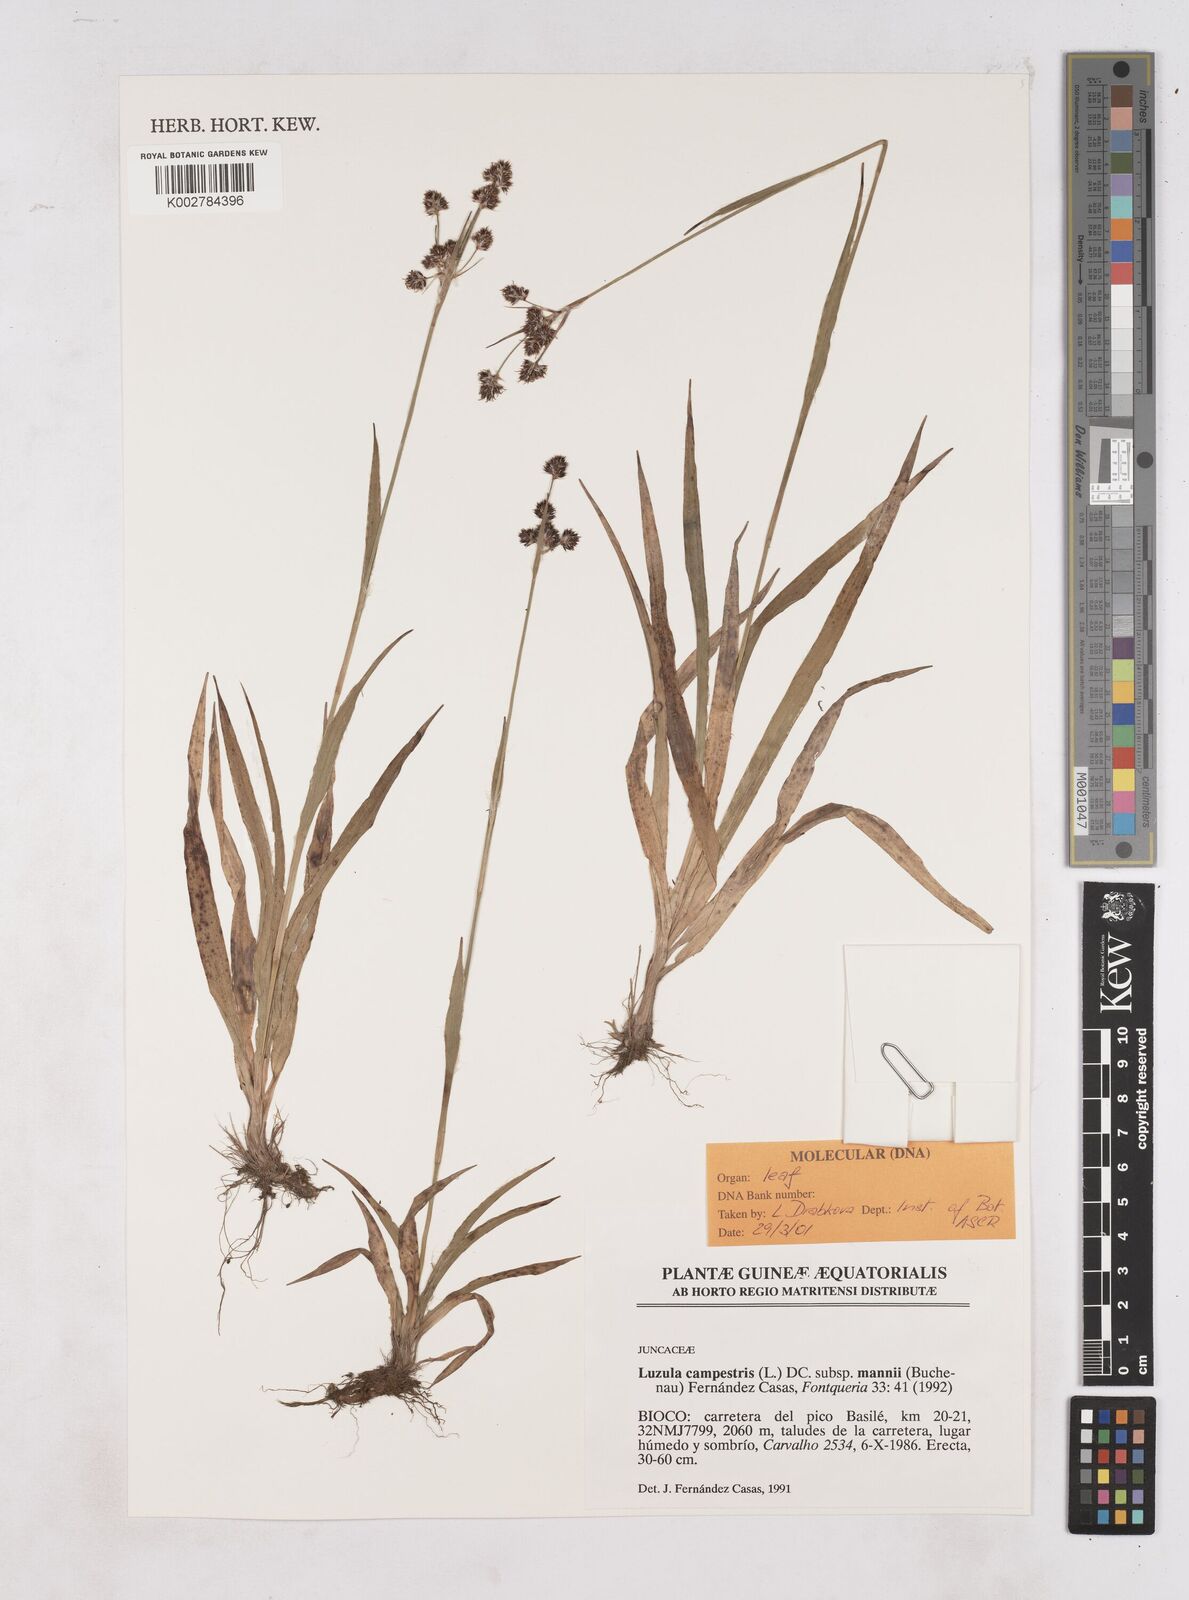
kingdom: Plantae
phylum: Tracheophyta
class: Liliopsida
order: Poales
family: Juncaceae
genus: Luzula
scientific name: Luzula campestris
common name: Field wood-rush
